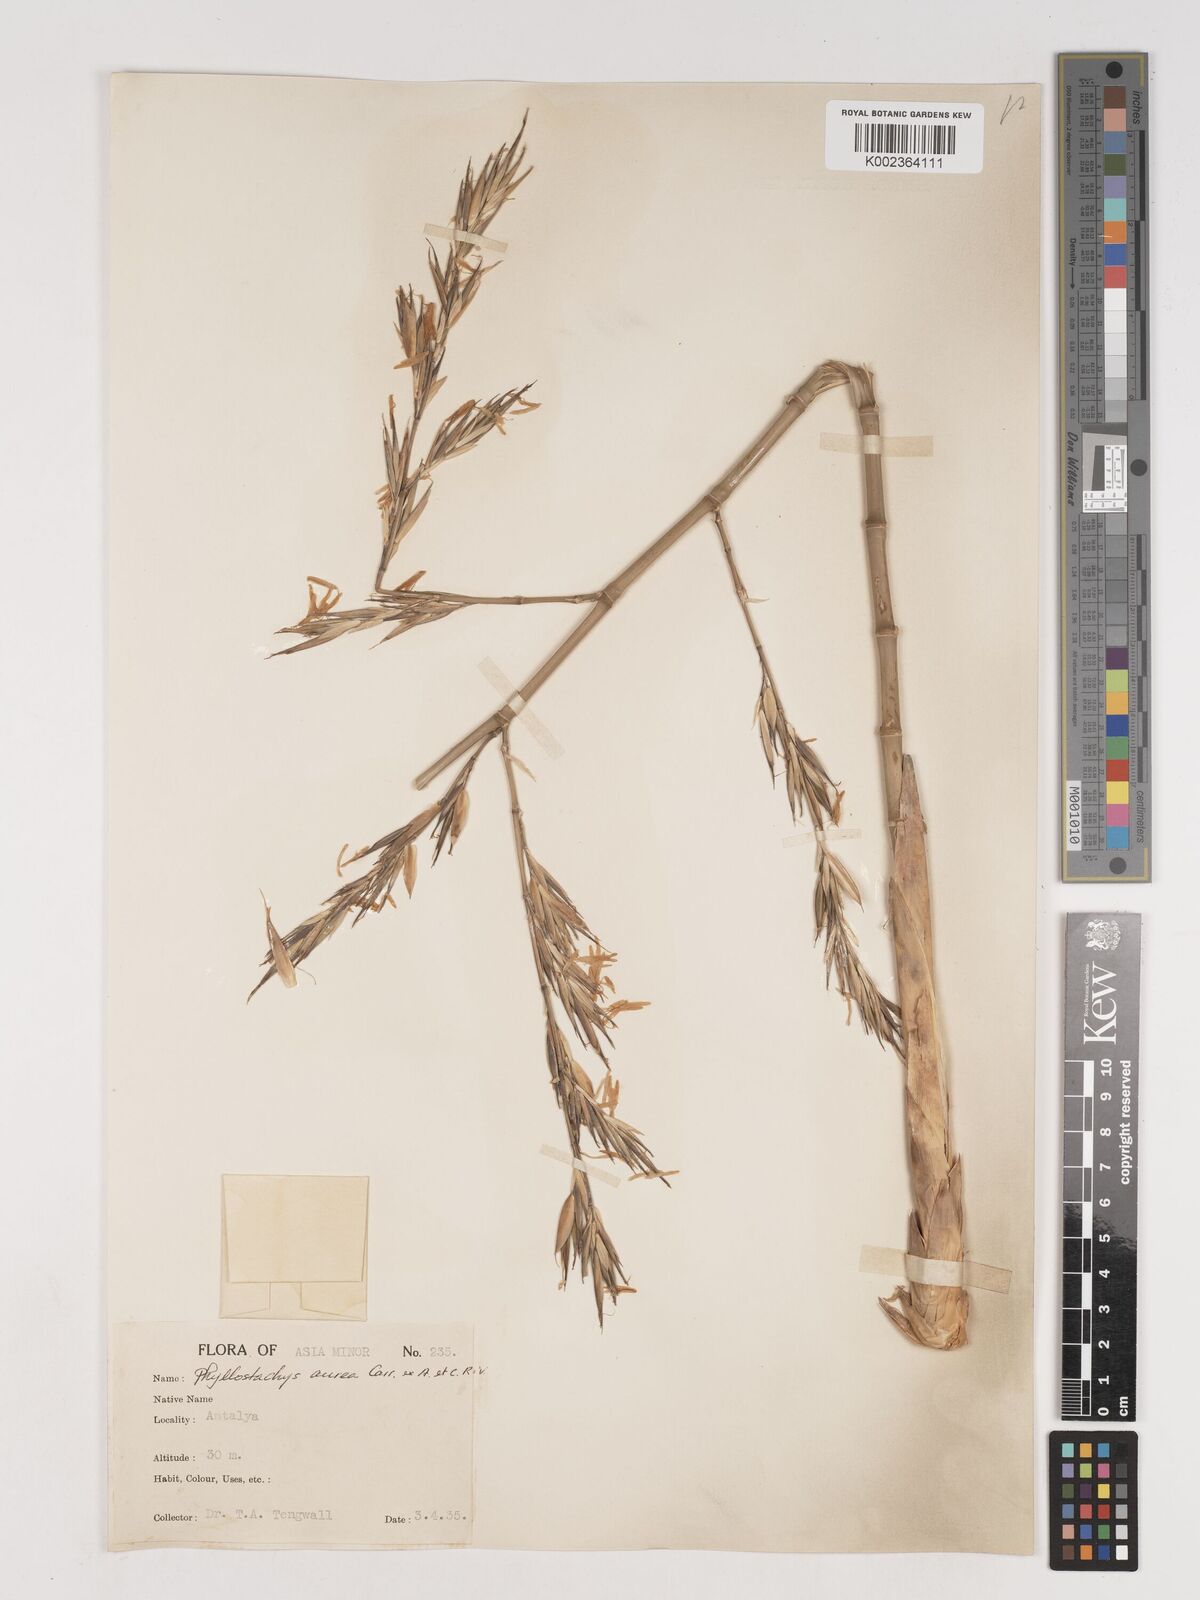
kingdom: Plantae
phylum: Tracheophyta
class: Liliopsida
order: Poales
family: Poaceae
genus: Phyllostachys
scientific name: Phyllostachys aurea
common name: Golden bamboo
